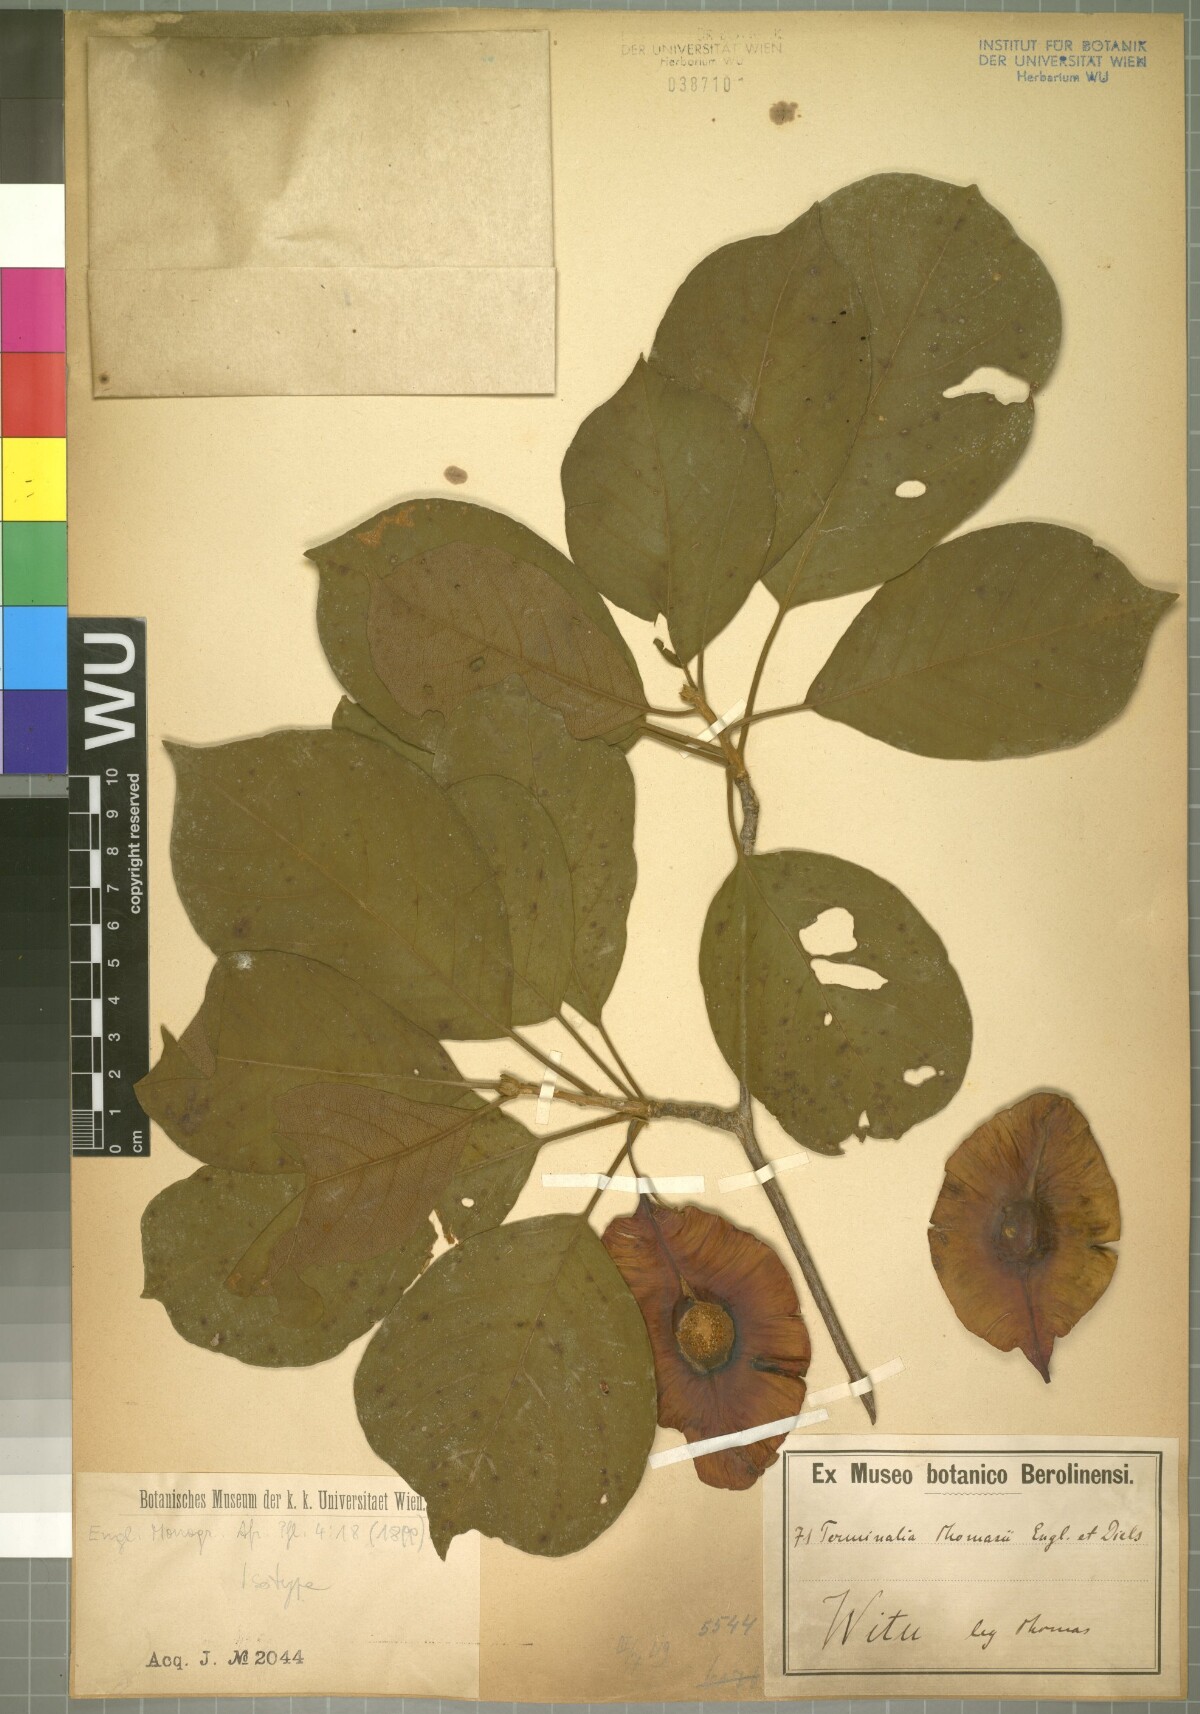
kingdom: Plantae
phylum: Tracheophyta
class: Magnoliopsida
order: Myrtales
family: Combretaceae
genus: Terminalia
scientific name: Terminalia sambesiaca
